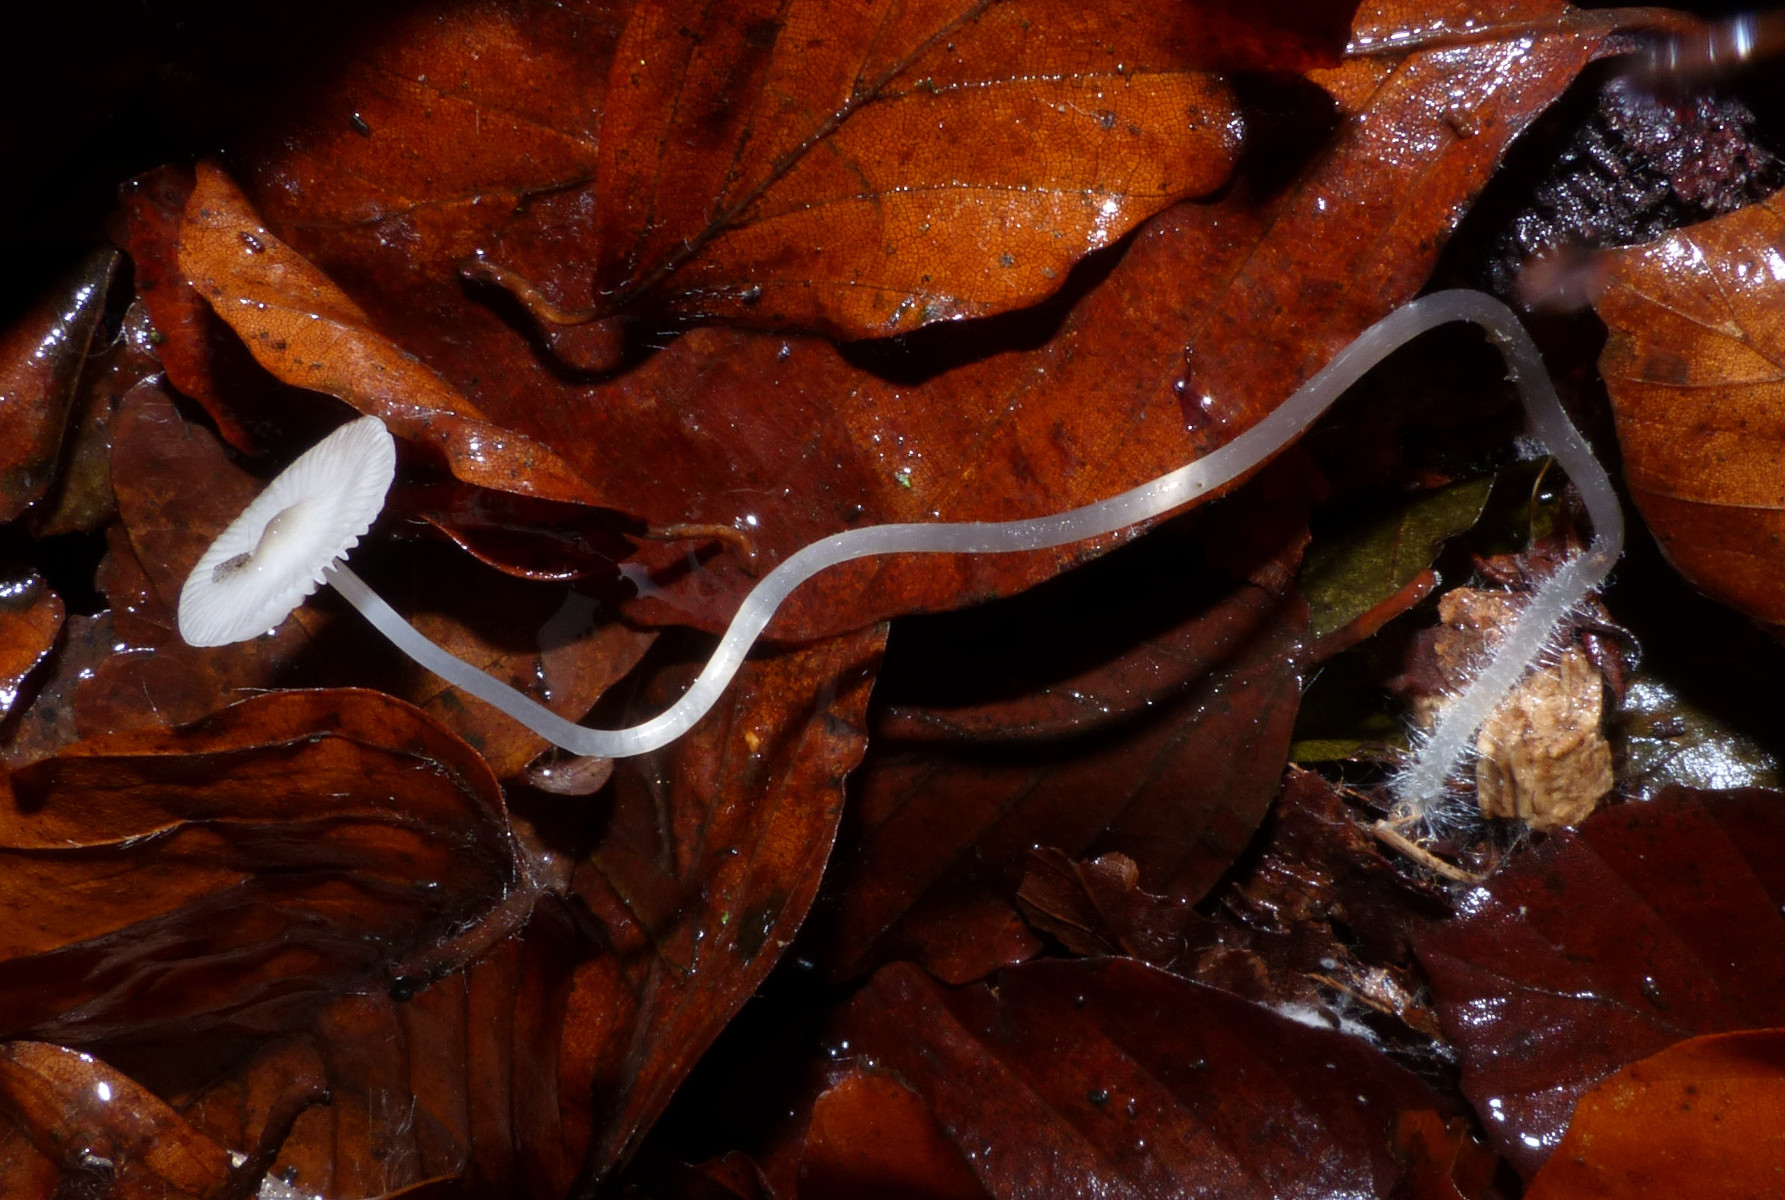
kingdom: Fungi
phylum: Basidiomycota
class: Agaricomycetes
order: Agaricales
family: Mycenaceae
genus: Mycena
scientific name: Mycena vitilis
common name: blankstokket huesvamp
